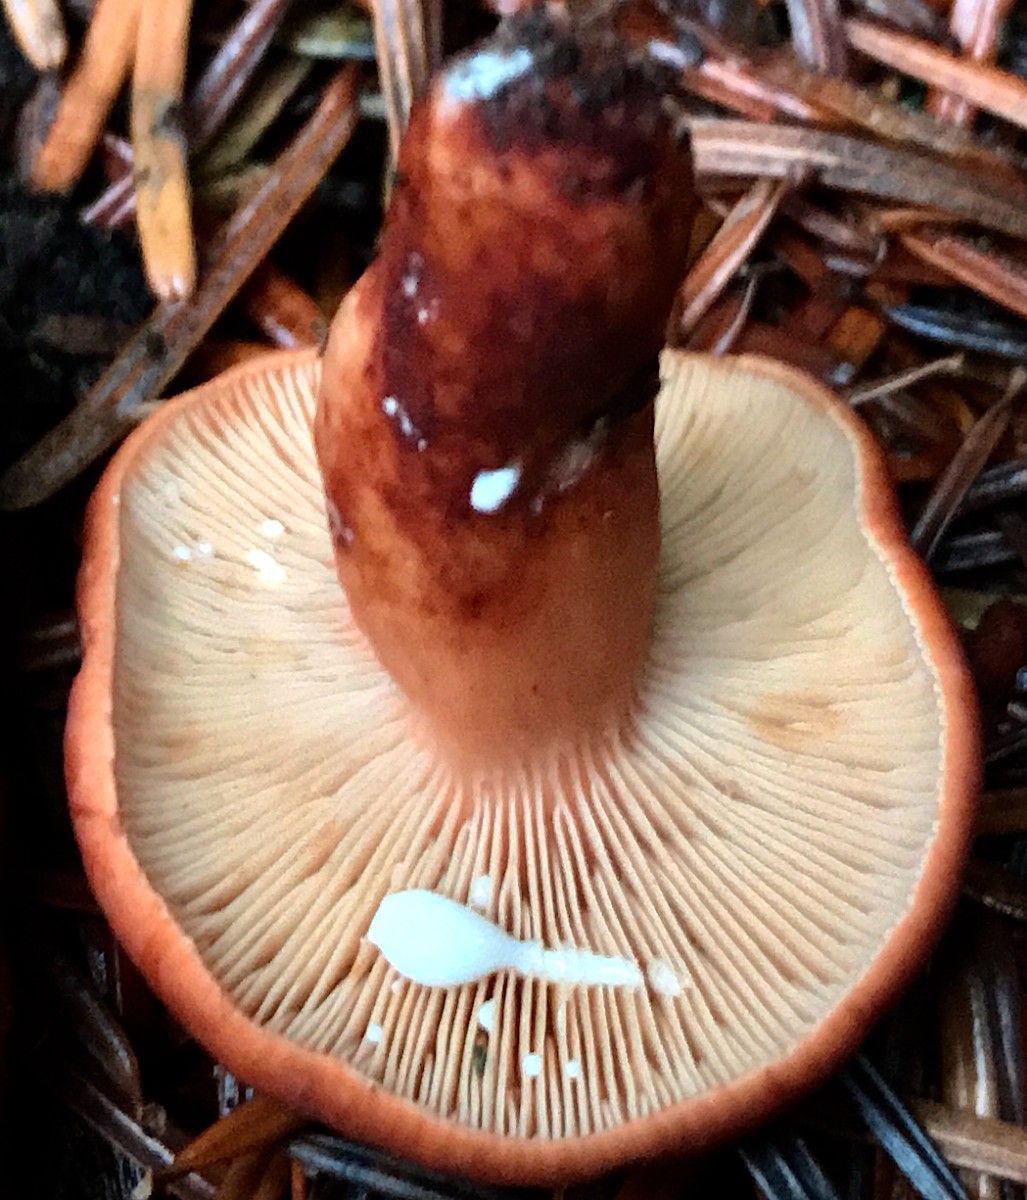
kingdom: Fungi
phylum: Basidiomycota
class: Agaricomycetes
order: Russulales
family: Russulaceae
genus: Lactarius
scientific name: Lactarius fulvissimus
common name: ræve-mælkehat
